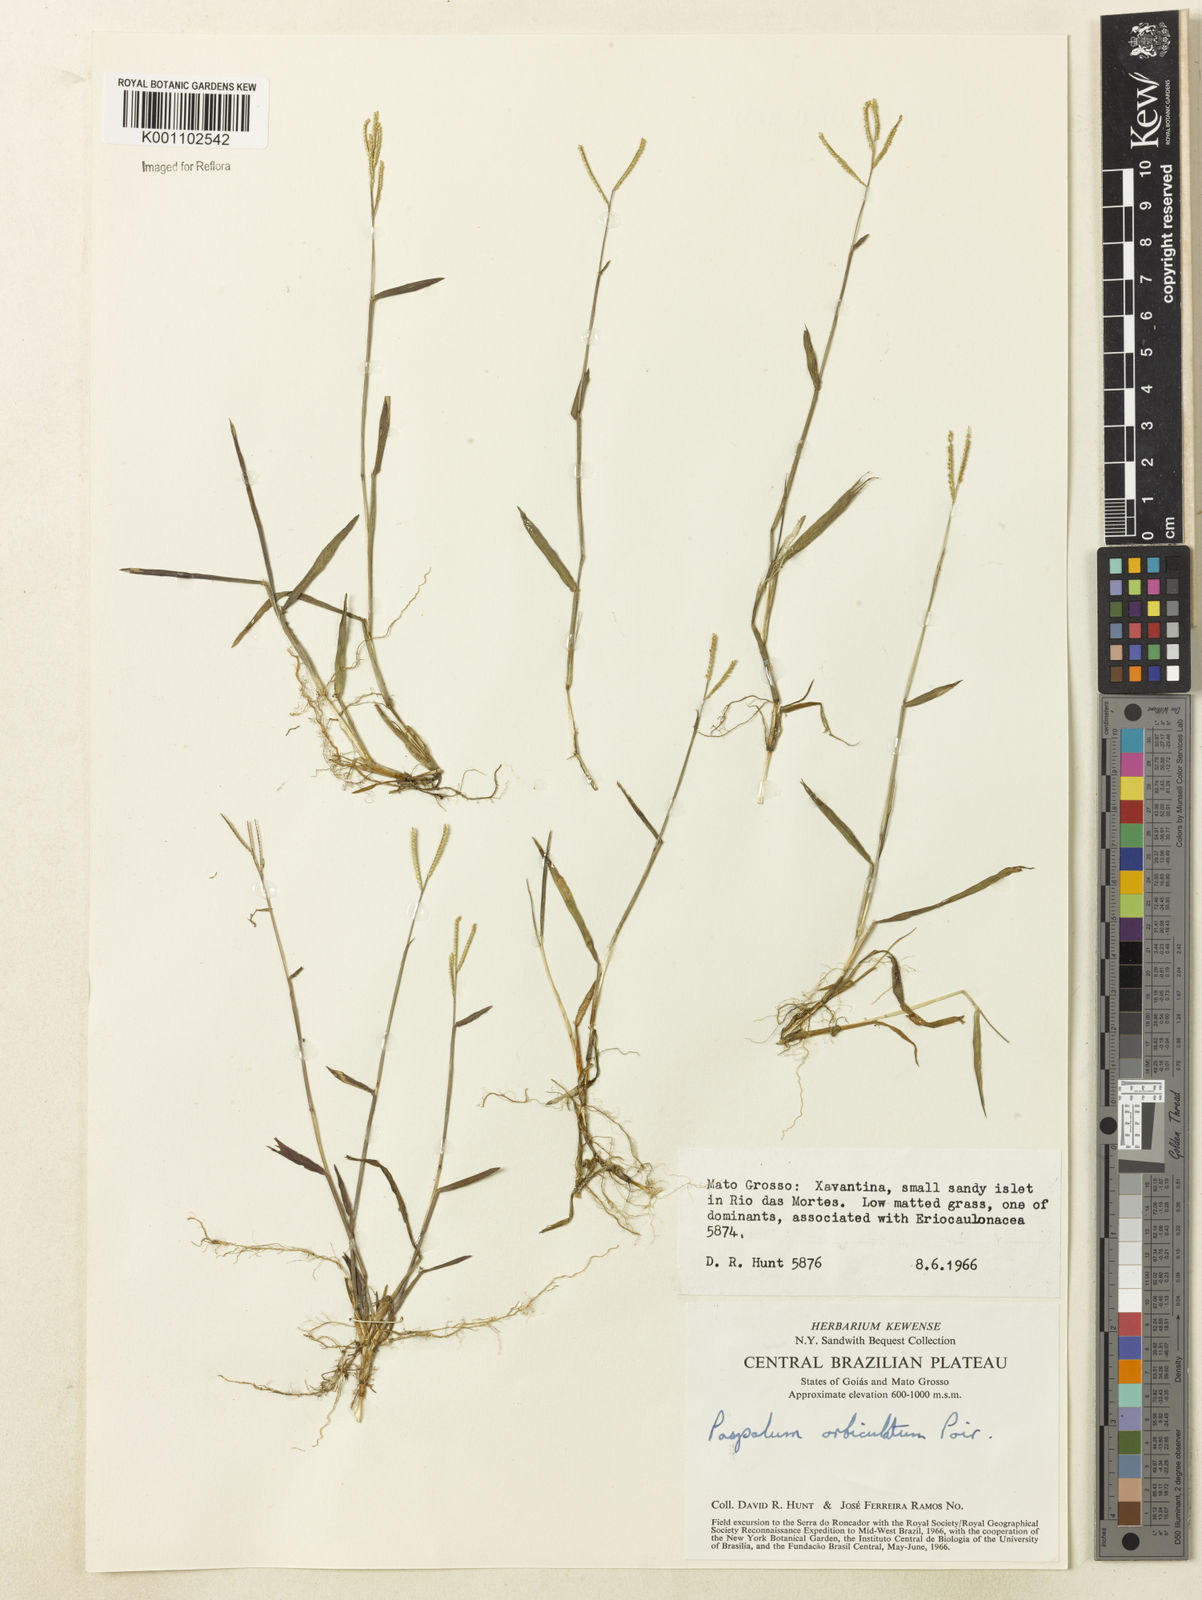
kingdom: Plantae
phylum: Tracheophyta
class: Liliopsida
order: Poales
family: Poaceae
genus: Paspalum
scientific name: Paspalum orbiculatum
